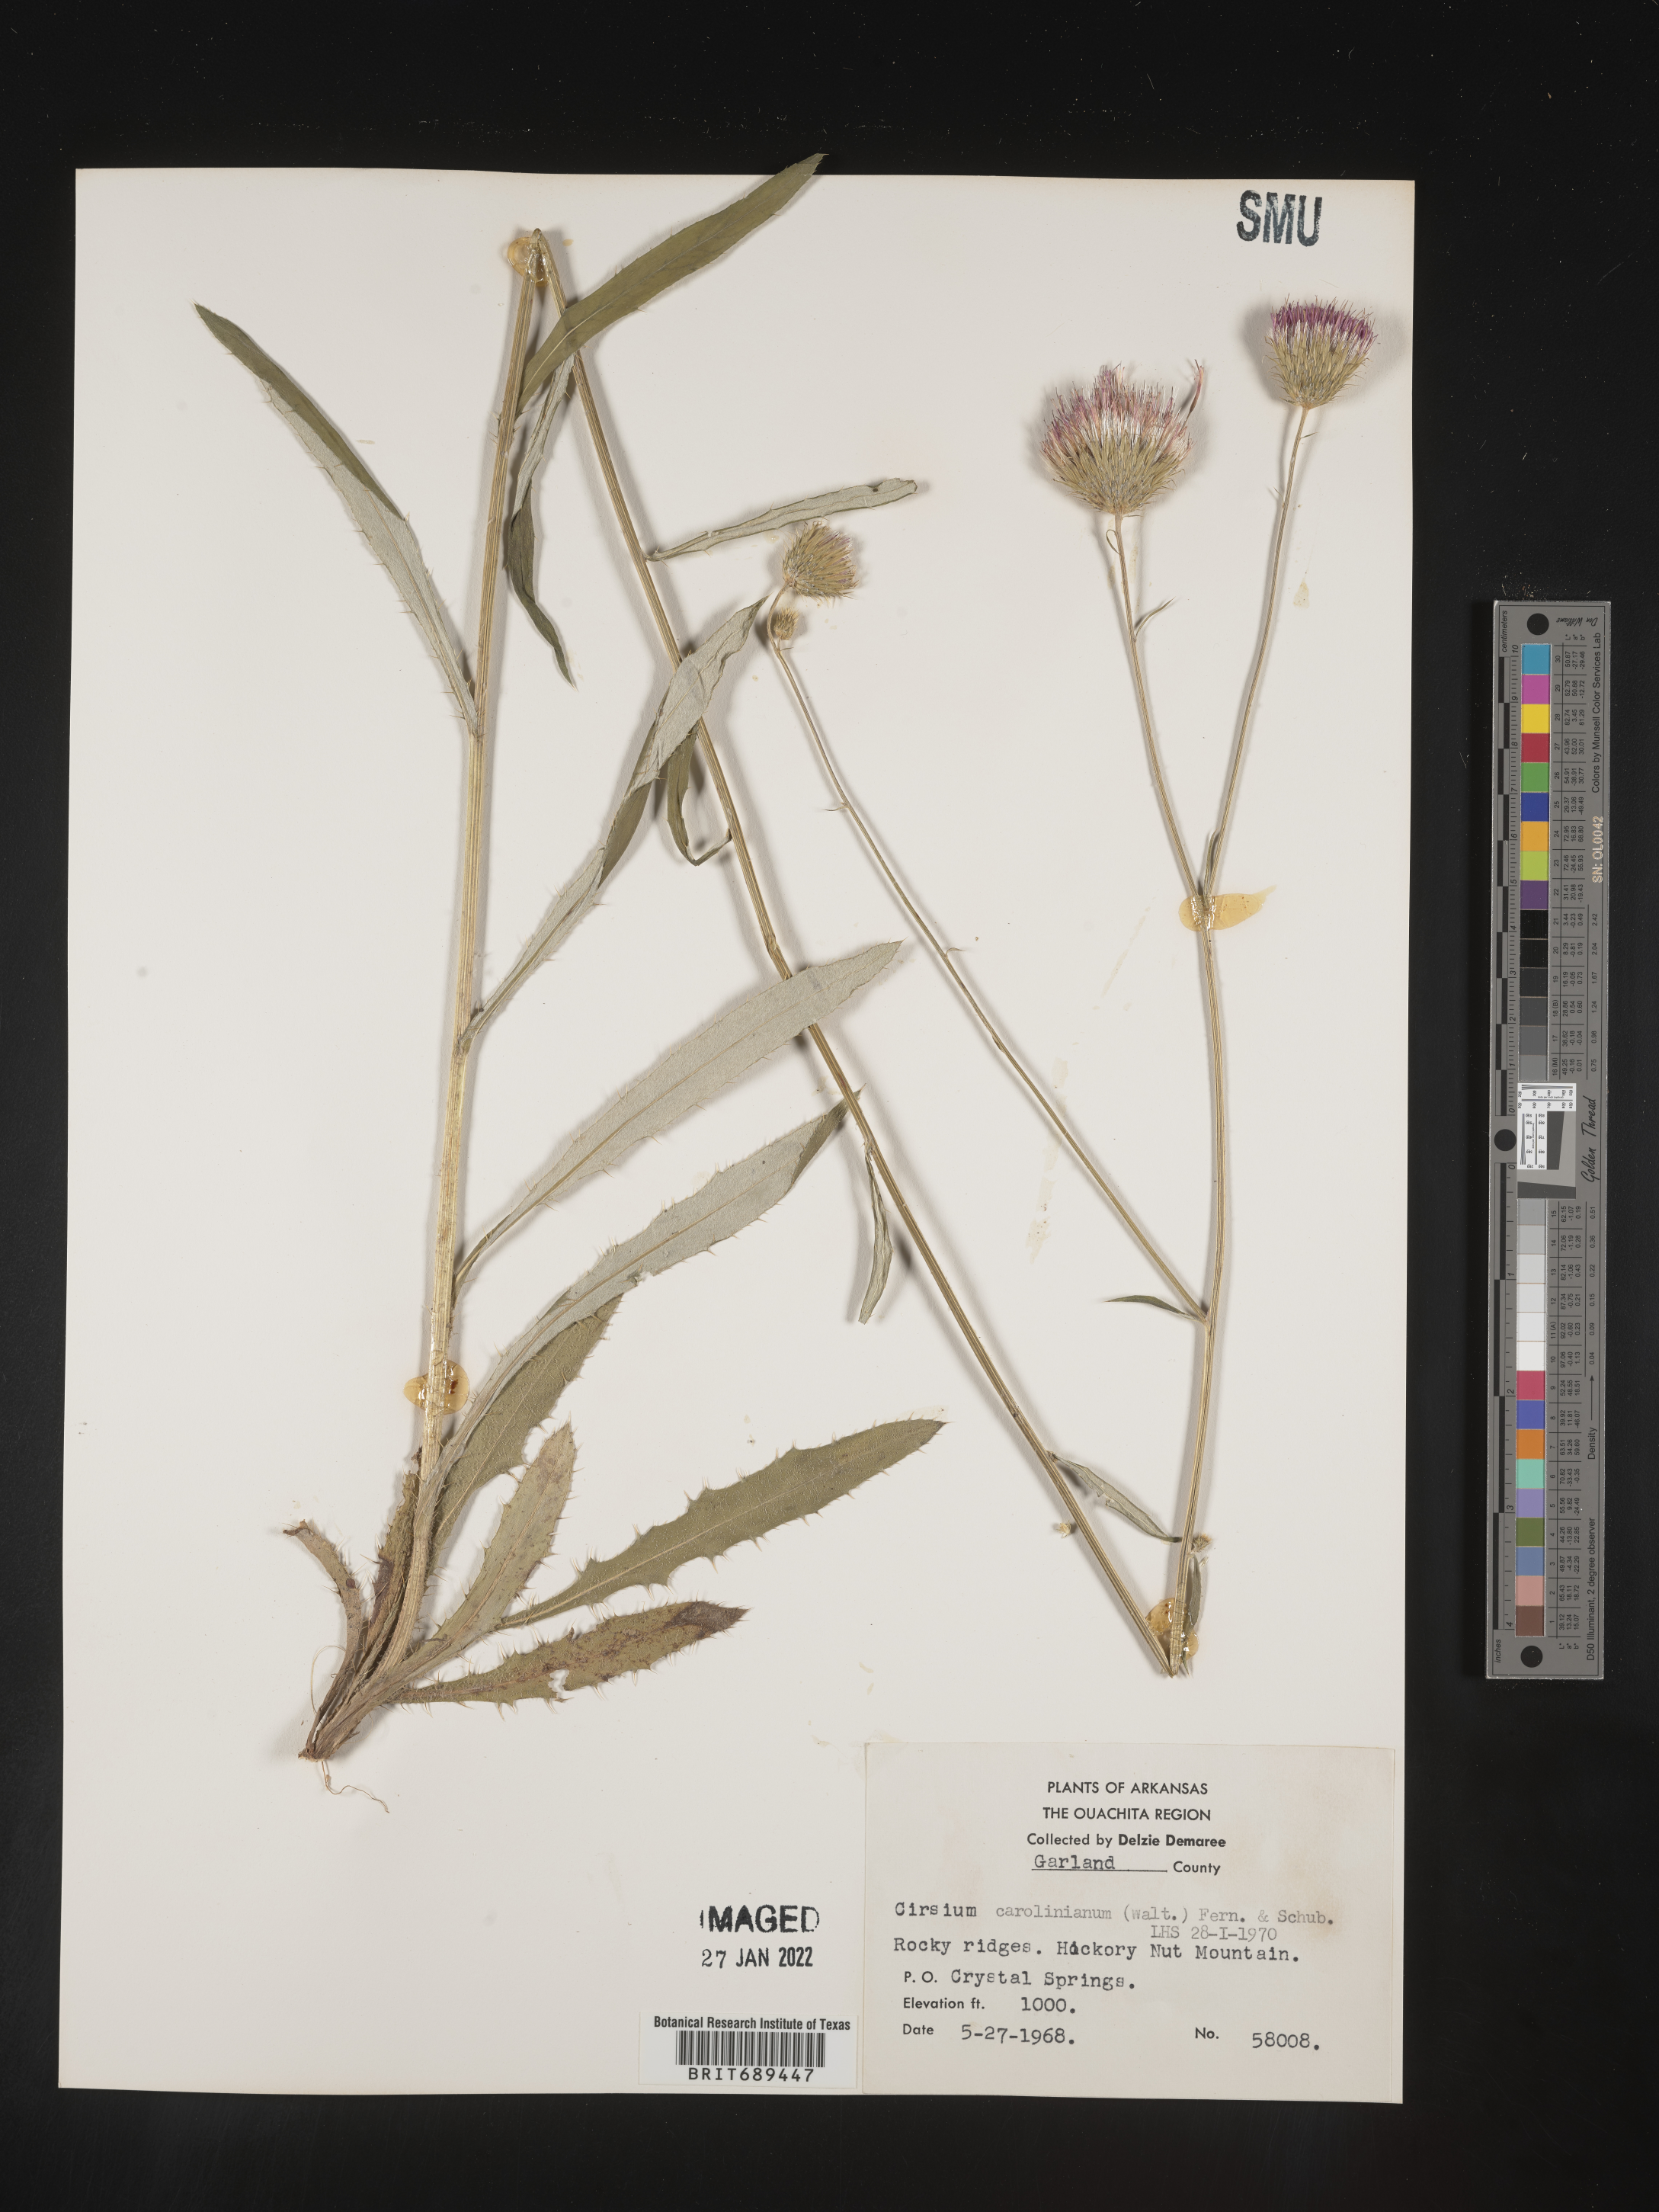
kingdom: Plantae
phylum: Tracheophyta
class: Magnoliopsida
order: Asterales
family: Asteraceae
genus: Cirsium
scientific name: Cirsium carolinianum
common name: Carolina thistle
